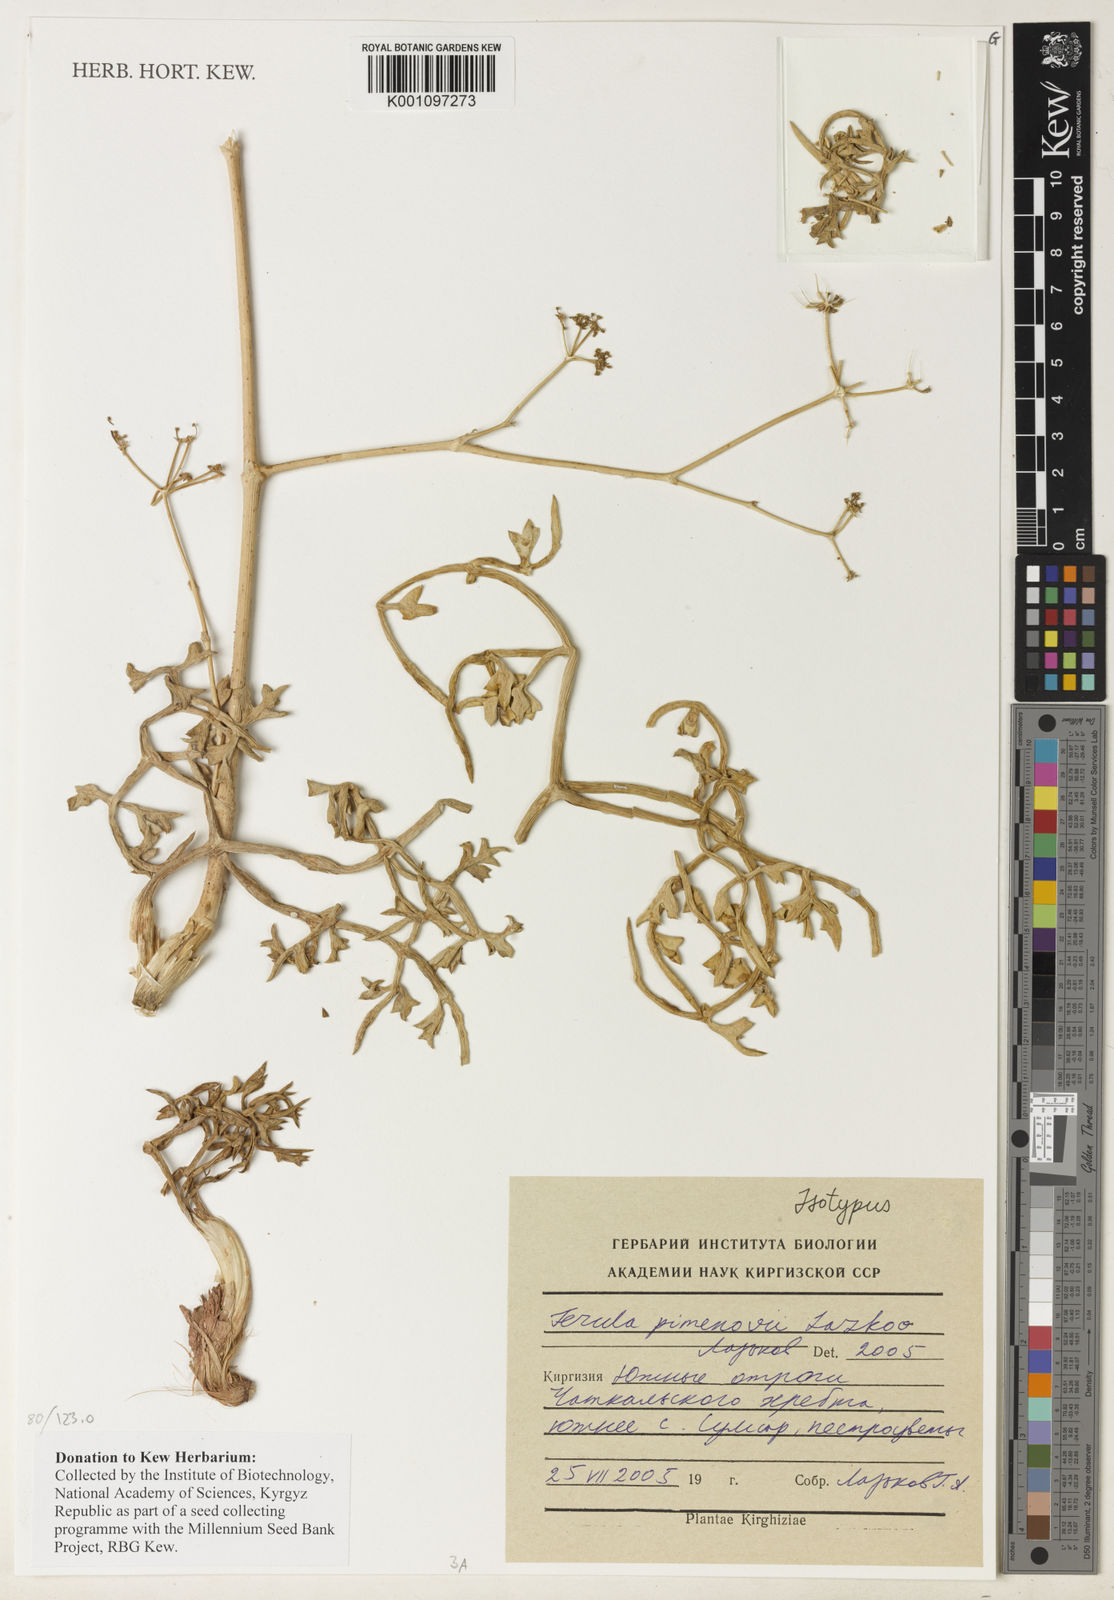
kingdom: Plantae
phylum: Tracheophyta
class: Magnoliopsida
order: Apiales
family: Apiaceae
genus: Ferula
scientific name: Ferula pimenovii
